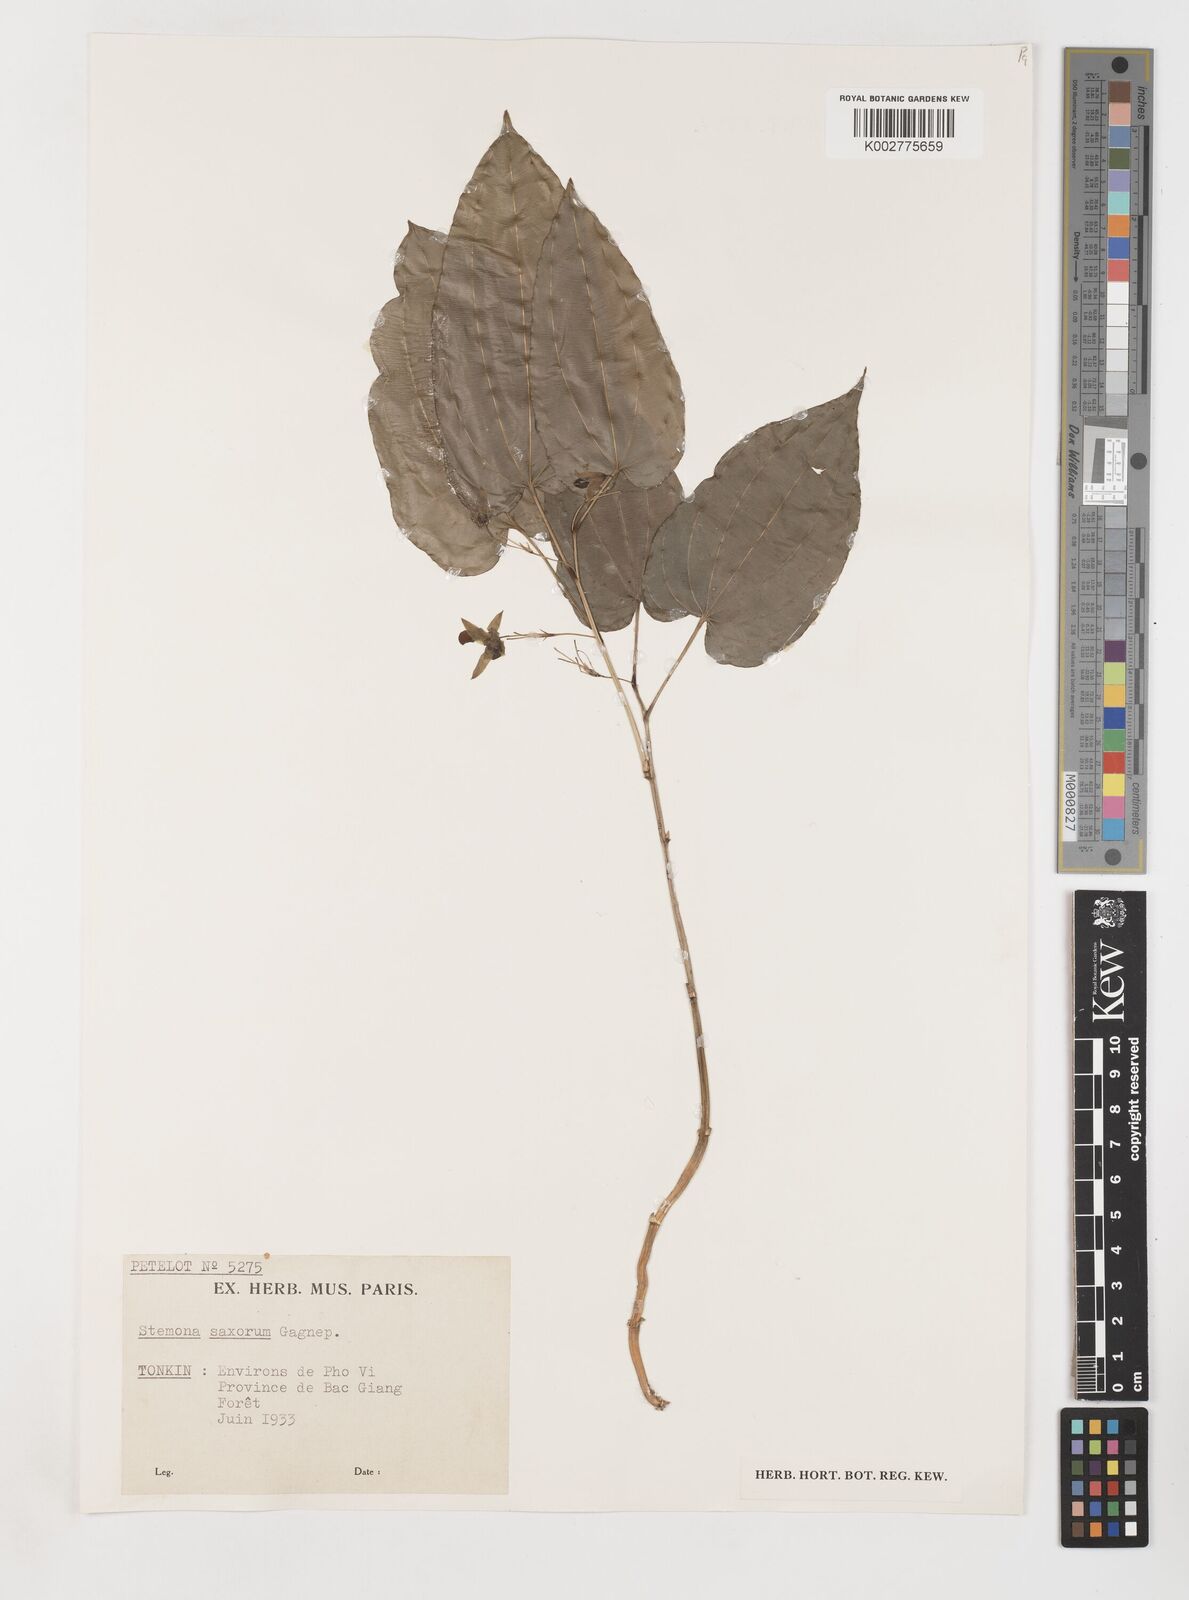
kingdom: Plantae
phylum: Tracheophyta
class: Liliopsida
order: Pandanales
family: Stemonaceae
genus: Stemona
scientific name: Stemona kerrii
